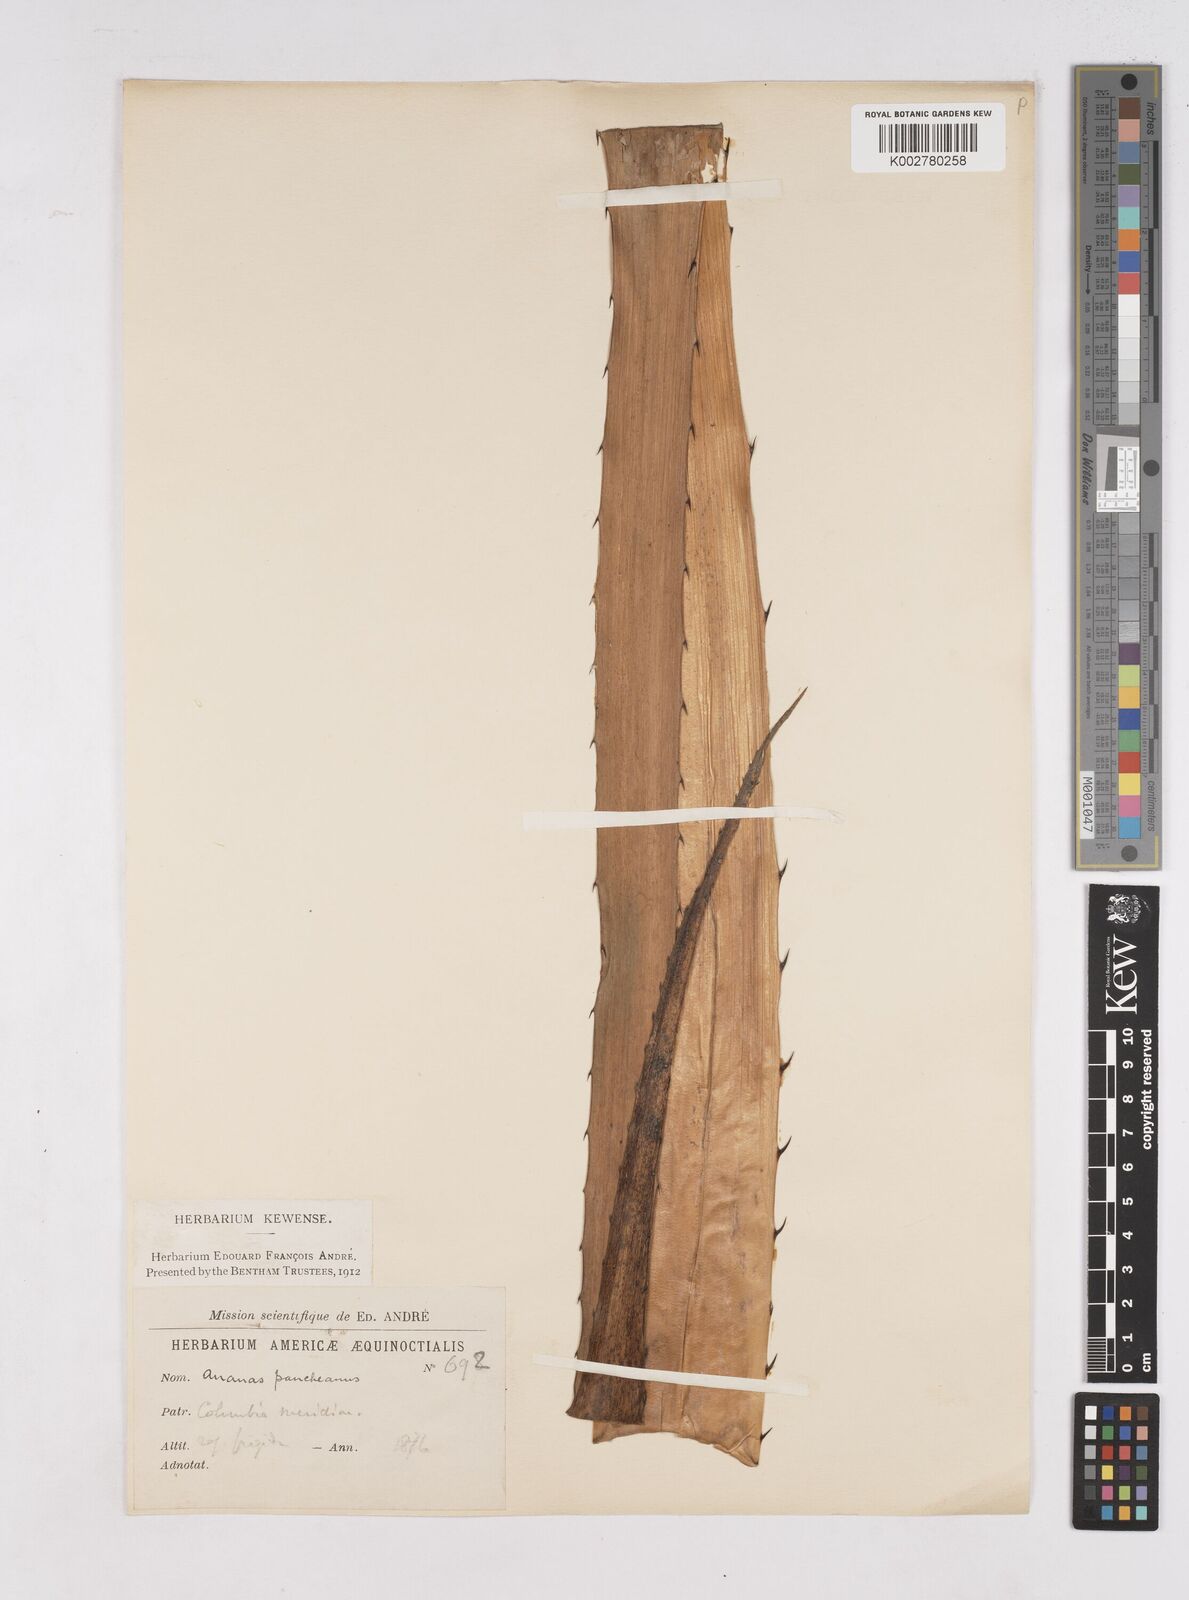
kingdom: Plantae
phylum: Tracheophyta
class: Liliopsida
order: Poales
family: Bromeliaceae
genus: Ananas
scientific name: Ananas comosus
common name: Pineapple
